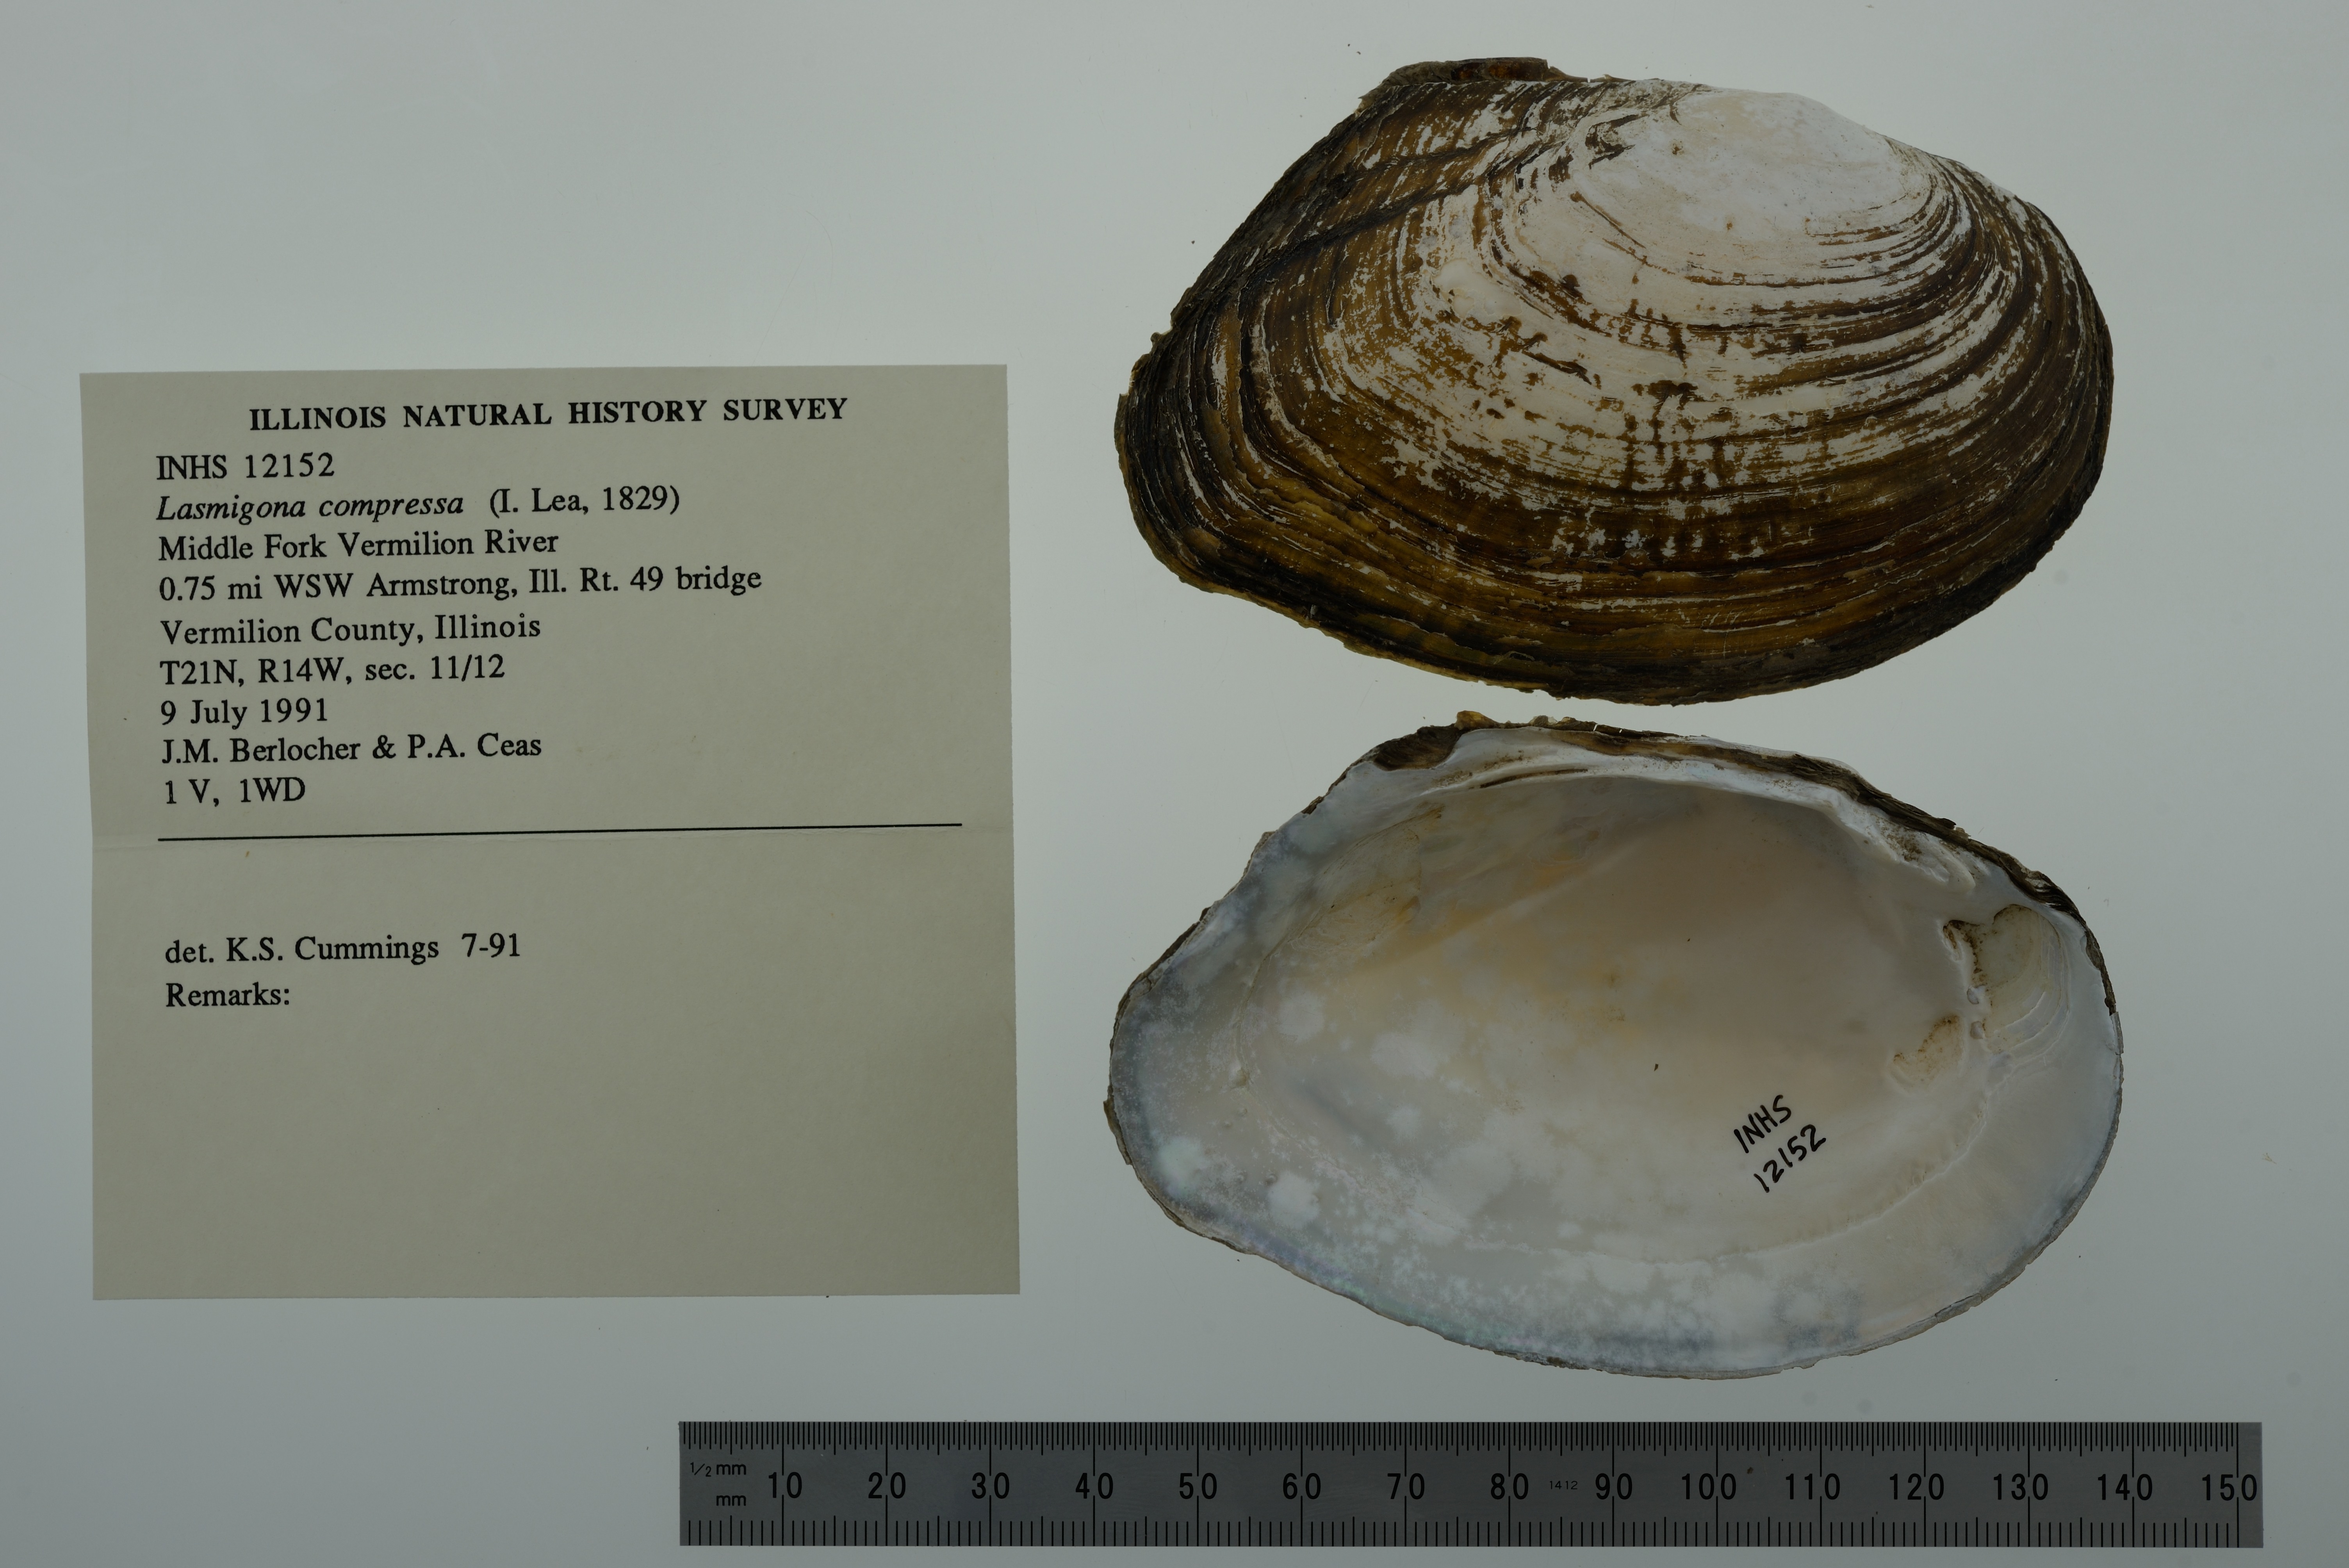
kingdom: Animalia
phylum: Mollusca
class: Bivalvia
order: Unionida
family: Unionidae
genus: Lasmigona
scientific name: Lasmigona compressa
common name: Creek heelsplitter
